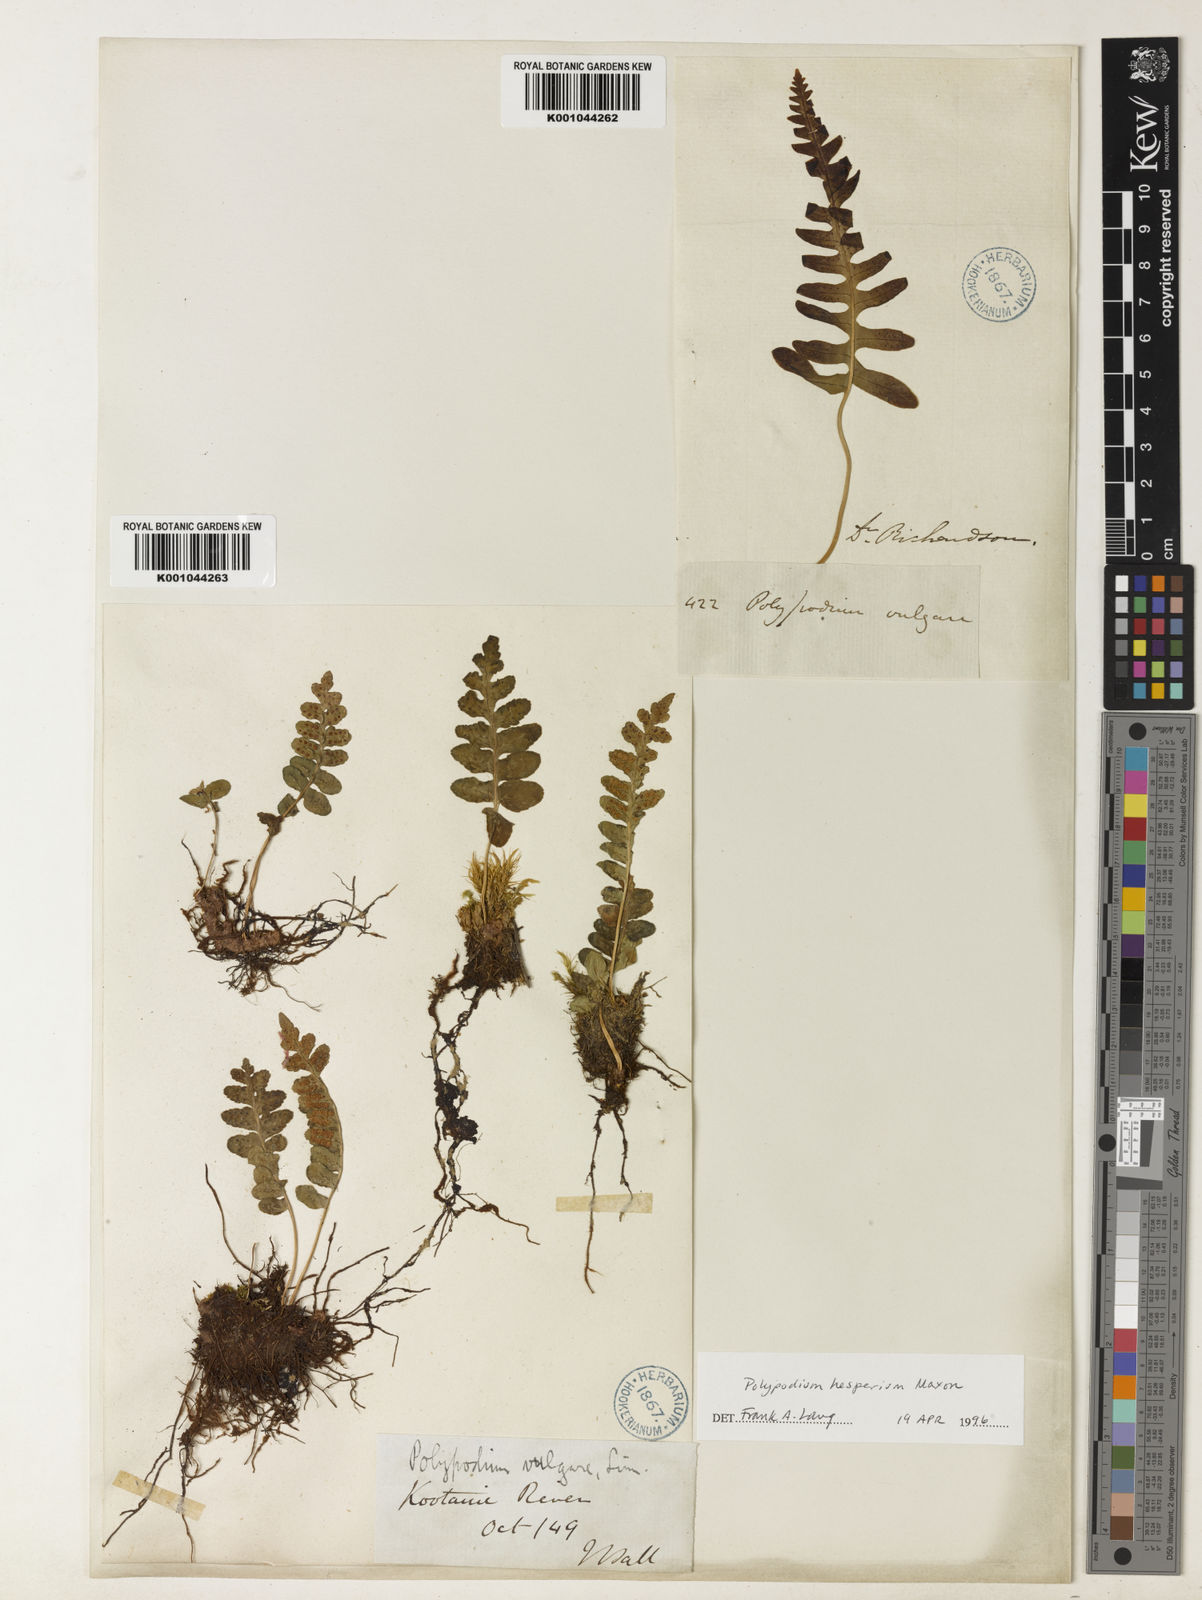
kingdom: Plantae
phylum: Tracheophyta
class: Polypodiopsida
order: Polypodiales
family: Polypodiaceae
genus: Polypodium
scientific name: Polypodium hesperium
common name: Western polypody
